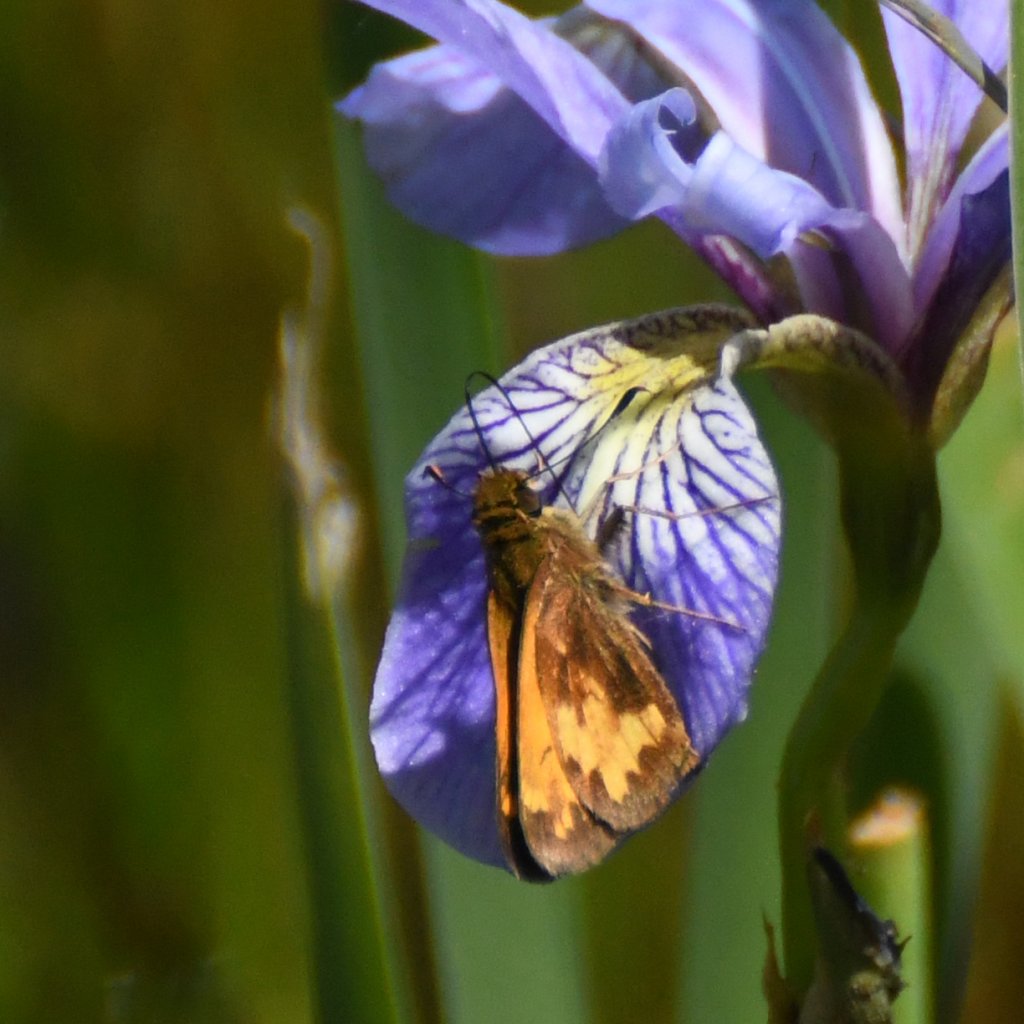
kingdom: Animalia
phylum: Arthropoda
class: Insecta
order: Lepidoptera
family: Hesperiidae
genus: Lon
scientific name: Lon hobomok
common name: Hobomok Skipper
